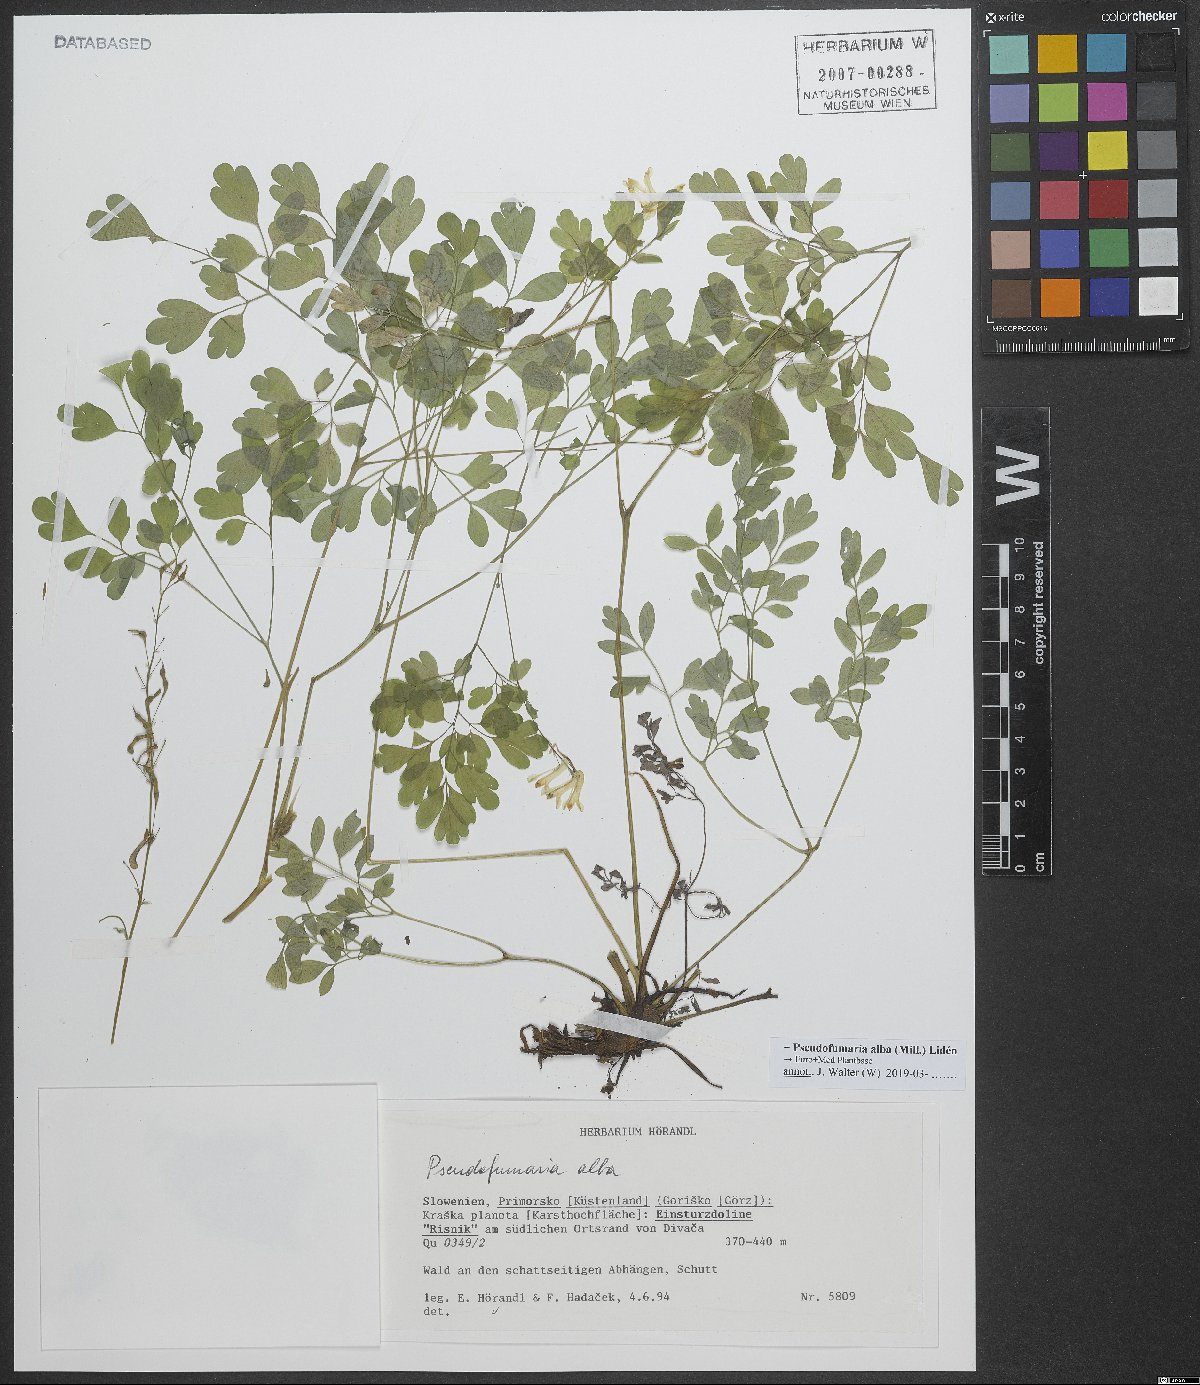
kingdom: Plantae
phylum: Tracheophyta
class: Magnoliopsida
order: Ranunculales
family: Papaveraceae
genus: Pseudofumaria
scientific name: Pseudofumaria alba
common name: Pale corydalis
